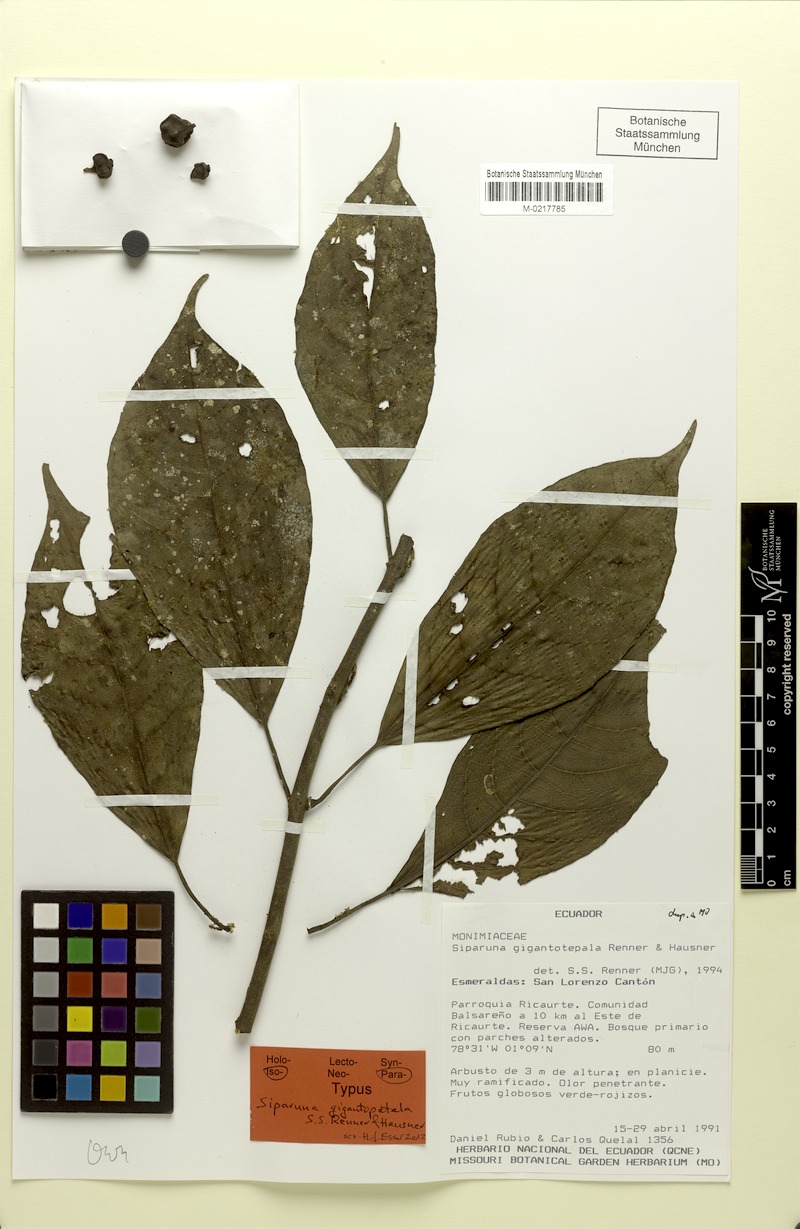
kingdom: Plantae
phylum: Tracheophyta
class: Magnoliopsida
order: Laurales
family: Siparunaceae
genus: Siparuna
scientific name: Siparuna gigantotepala
